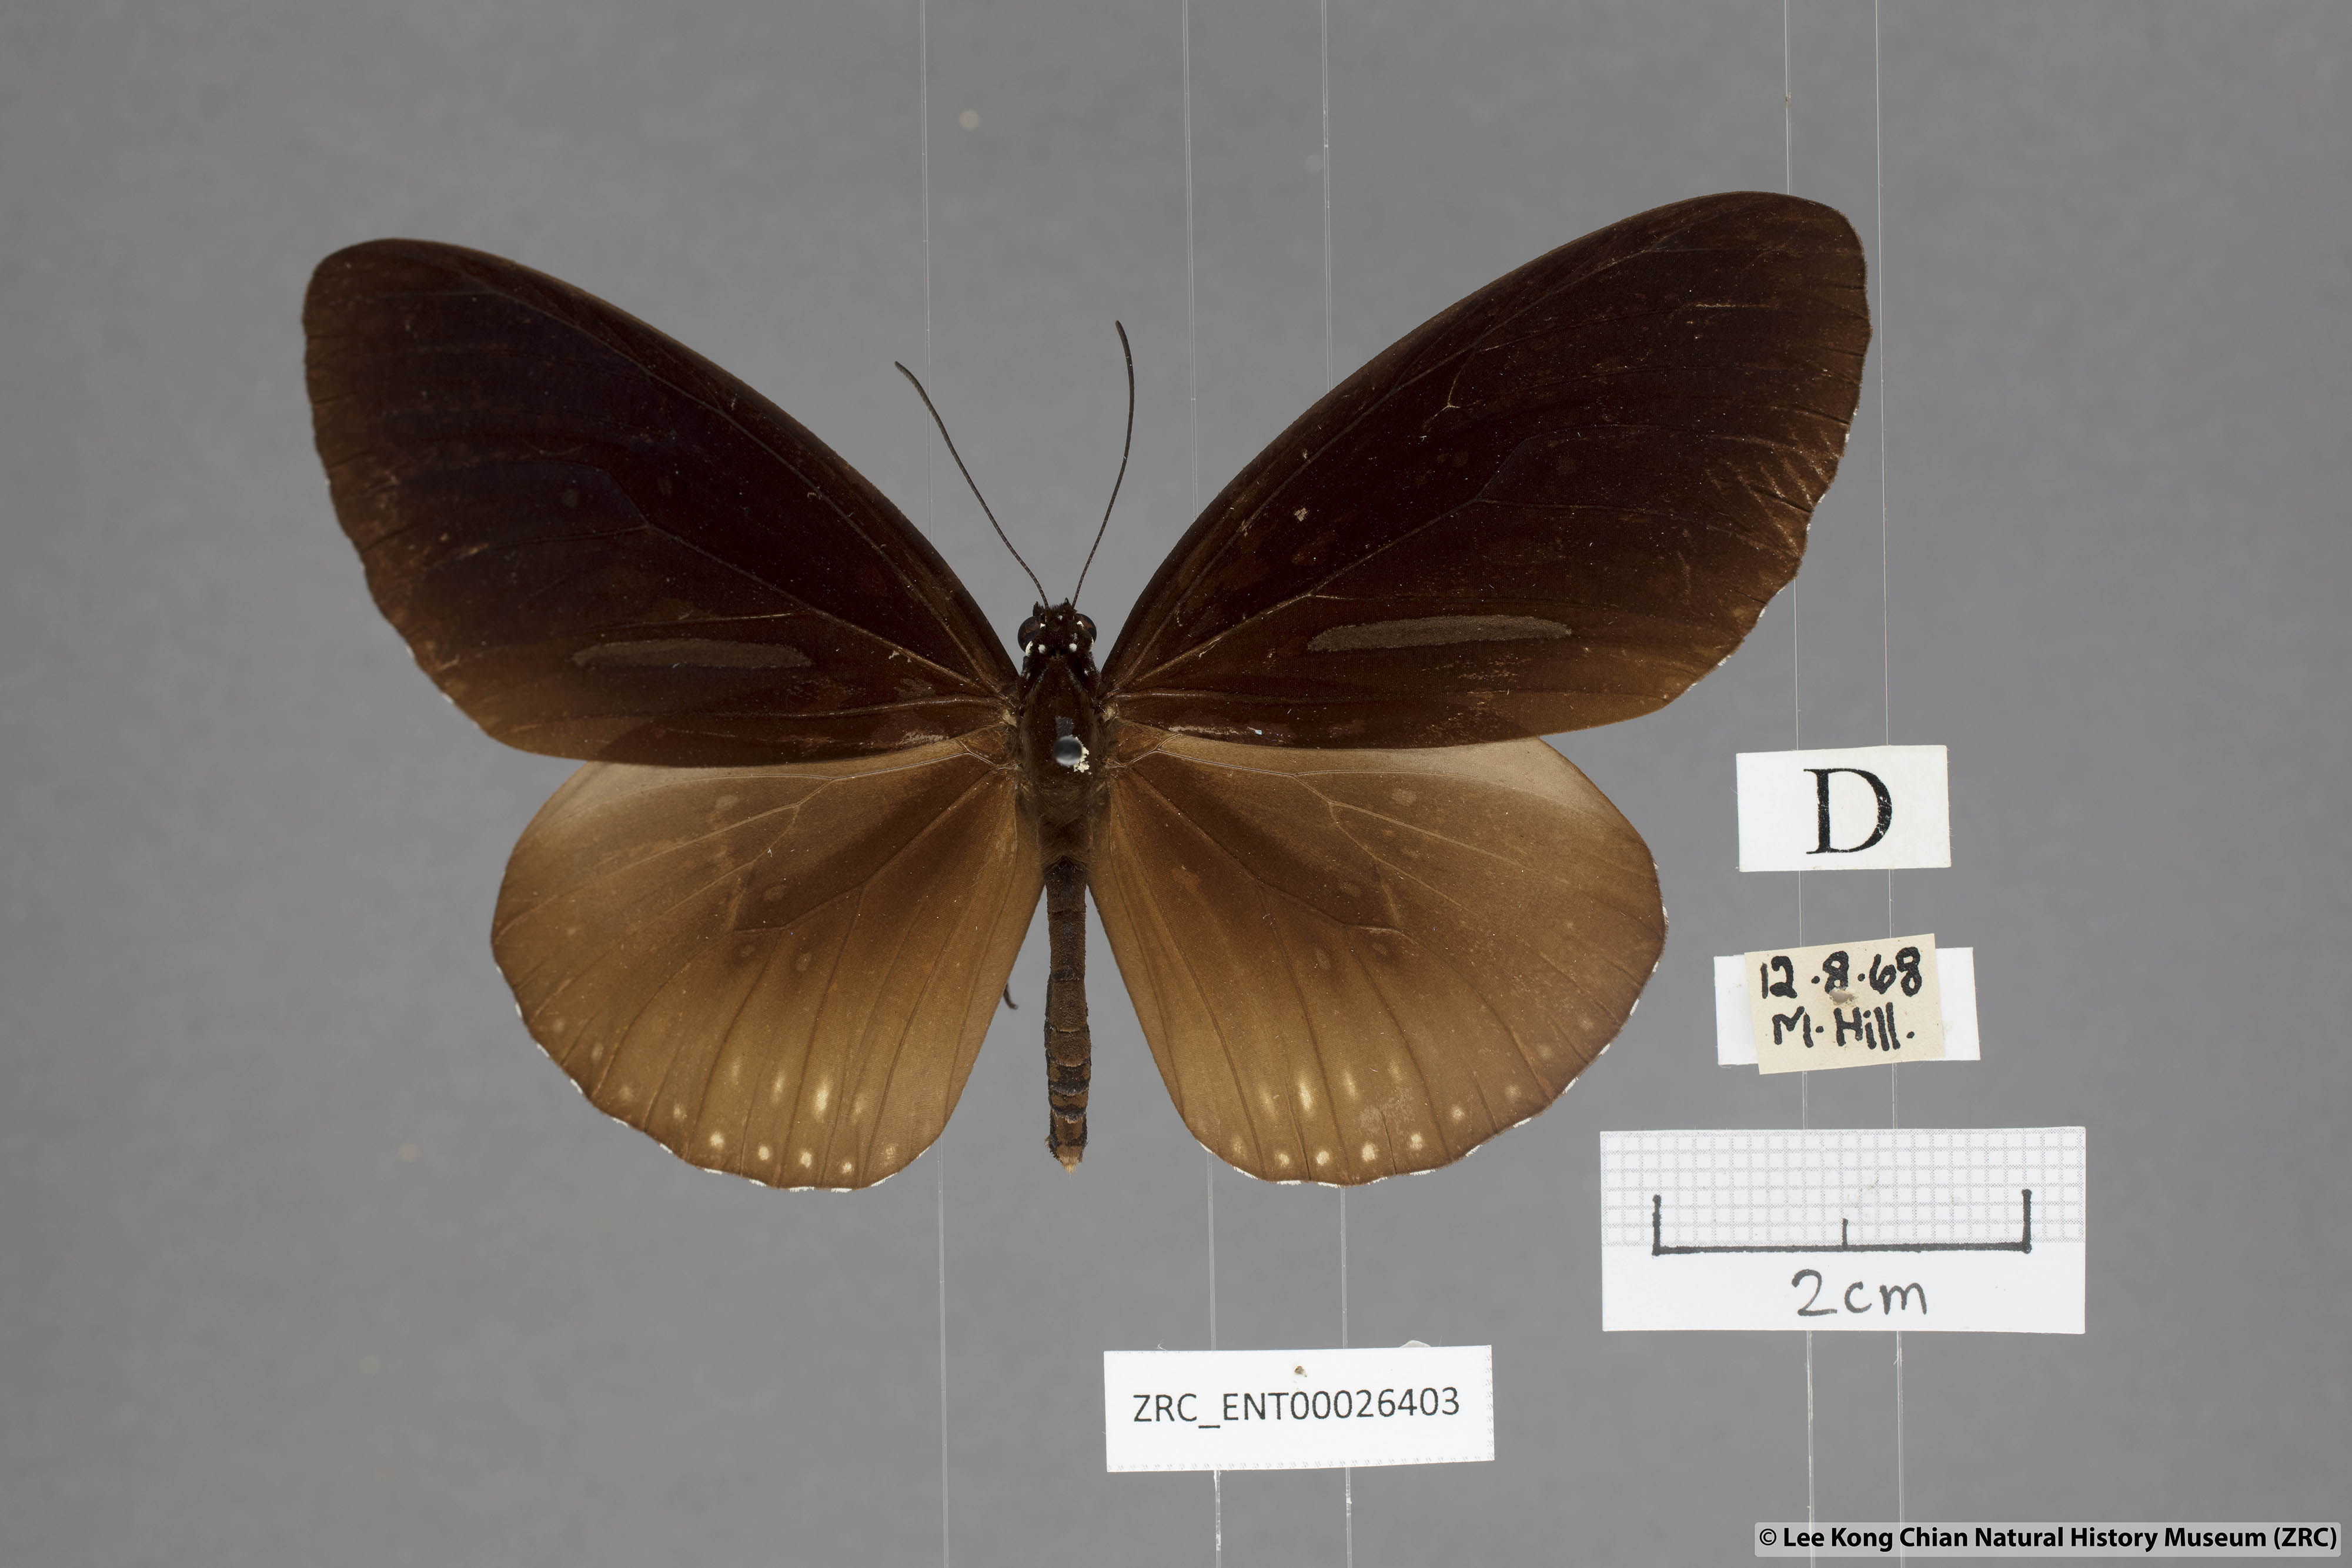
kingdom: Animalia
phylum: Arthropoda
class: Insecta
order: Lepidoptera
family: Nymphalidae
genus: Euploea
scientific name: Euploea algea
